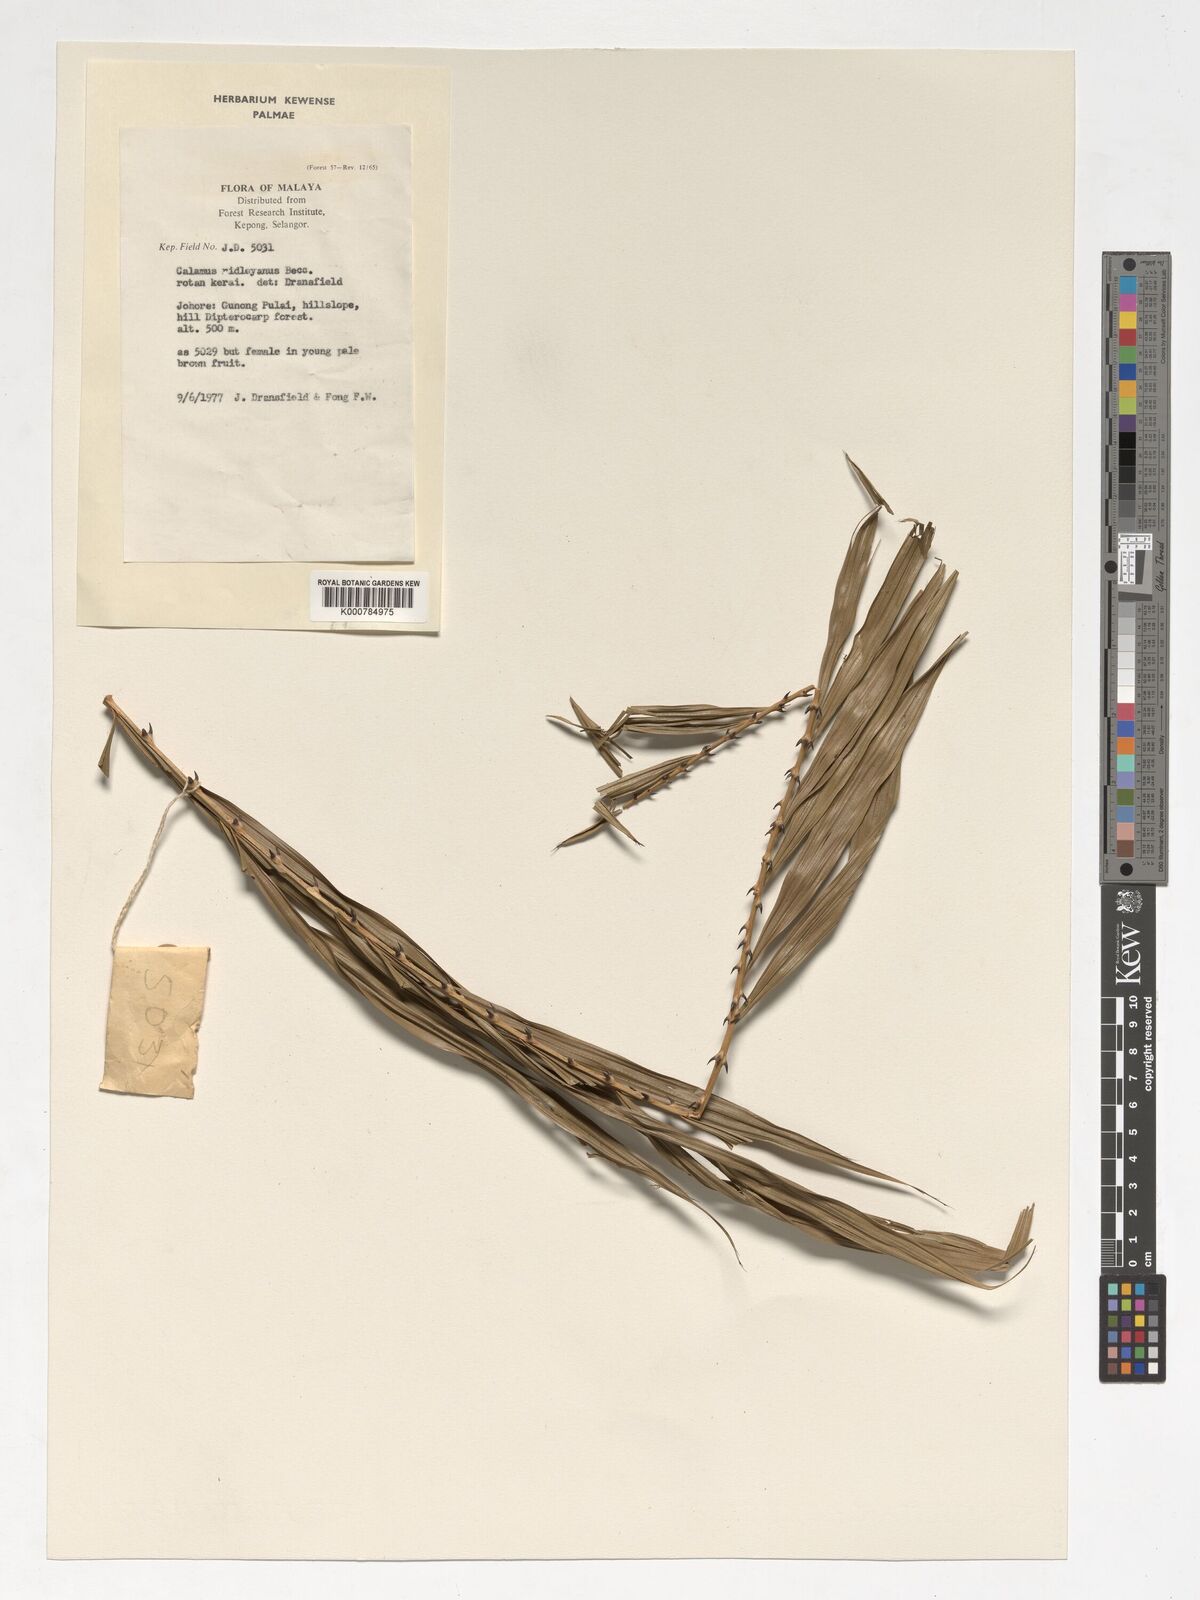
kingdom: Plantae
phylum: Tracheophyta
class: Liliopsida
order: Arecales
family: Arecaceae
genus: Calamus
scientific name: Calamus ridleyanus
